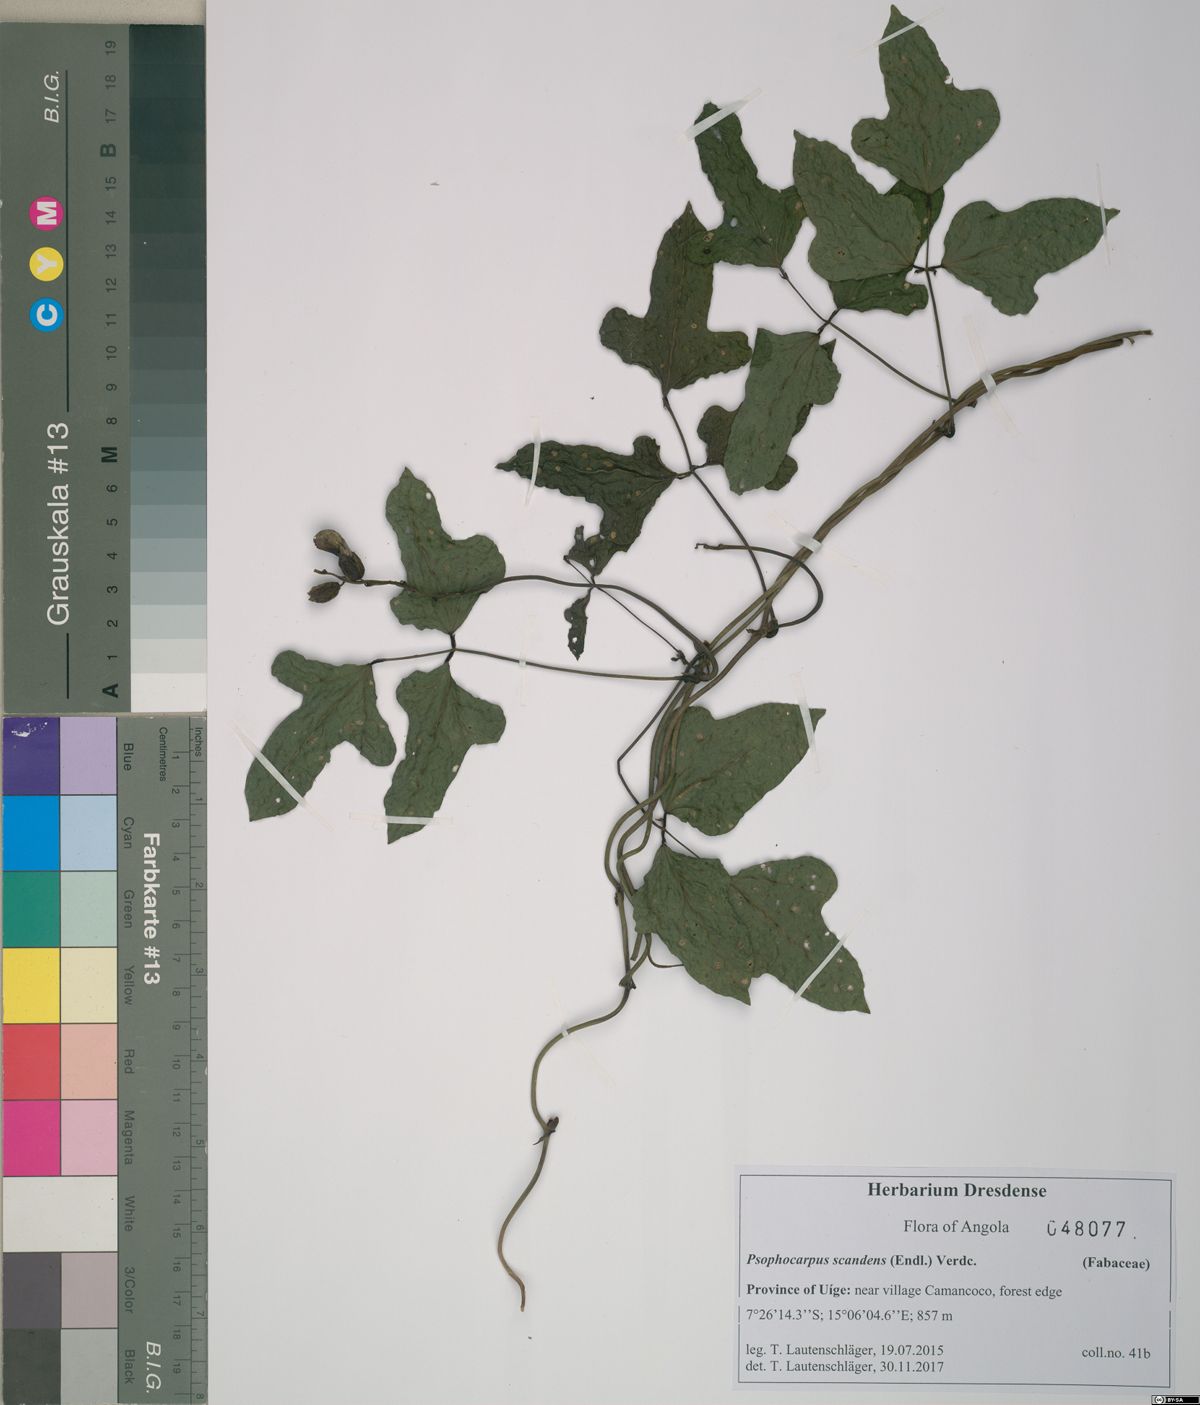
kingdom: Plantae
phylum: Tracheophyta
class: Magnoliopsida
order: Fabales
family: Fabaceae
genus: Psophocarpus
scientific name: Psophocarpus scandens
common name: Tropical african winged-bean
